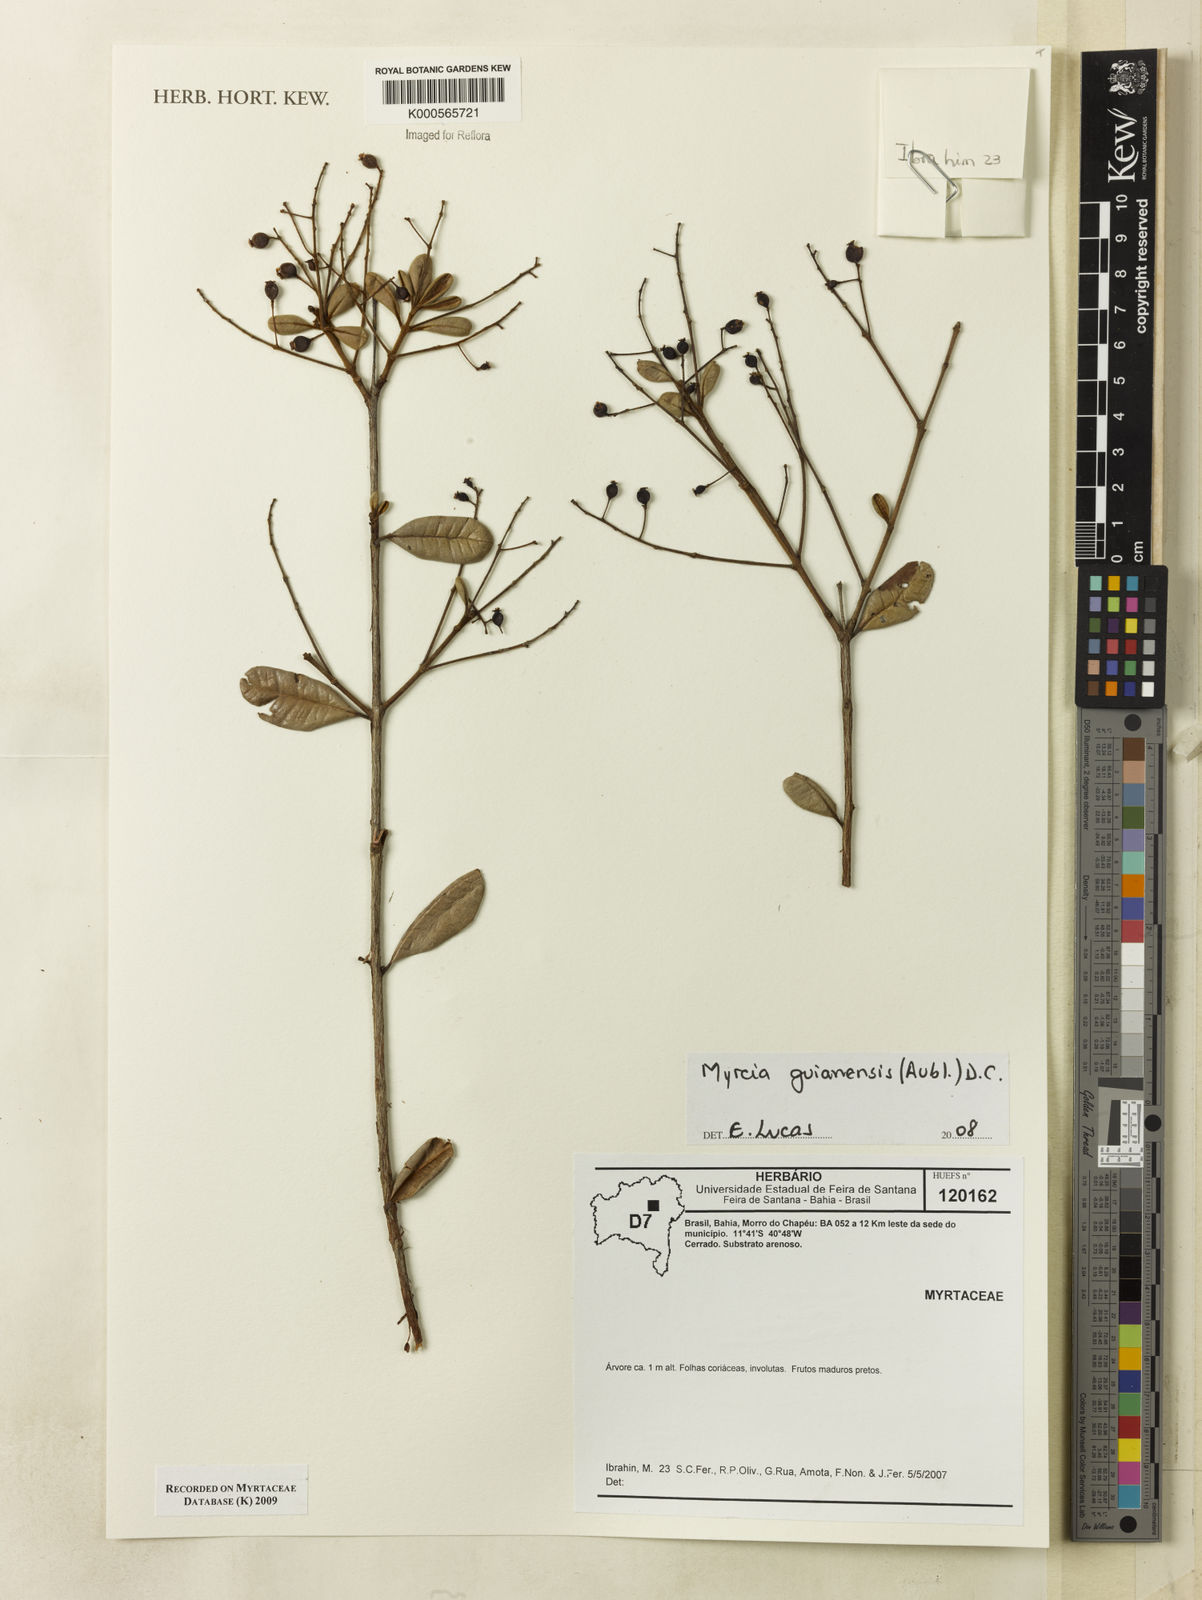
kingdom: Plantae
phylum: Tracheophyta
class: Magnoliopsida
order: Myrtales
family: Myrtaceae
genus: Myrcia
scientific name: Myrcia guianensis
